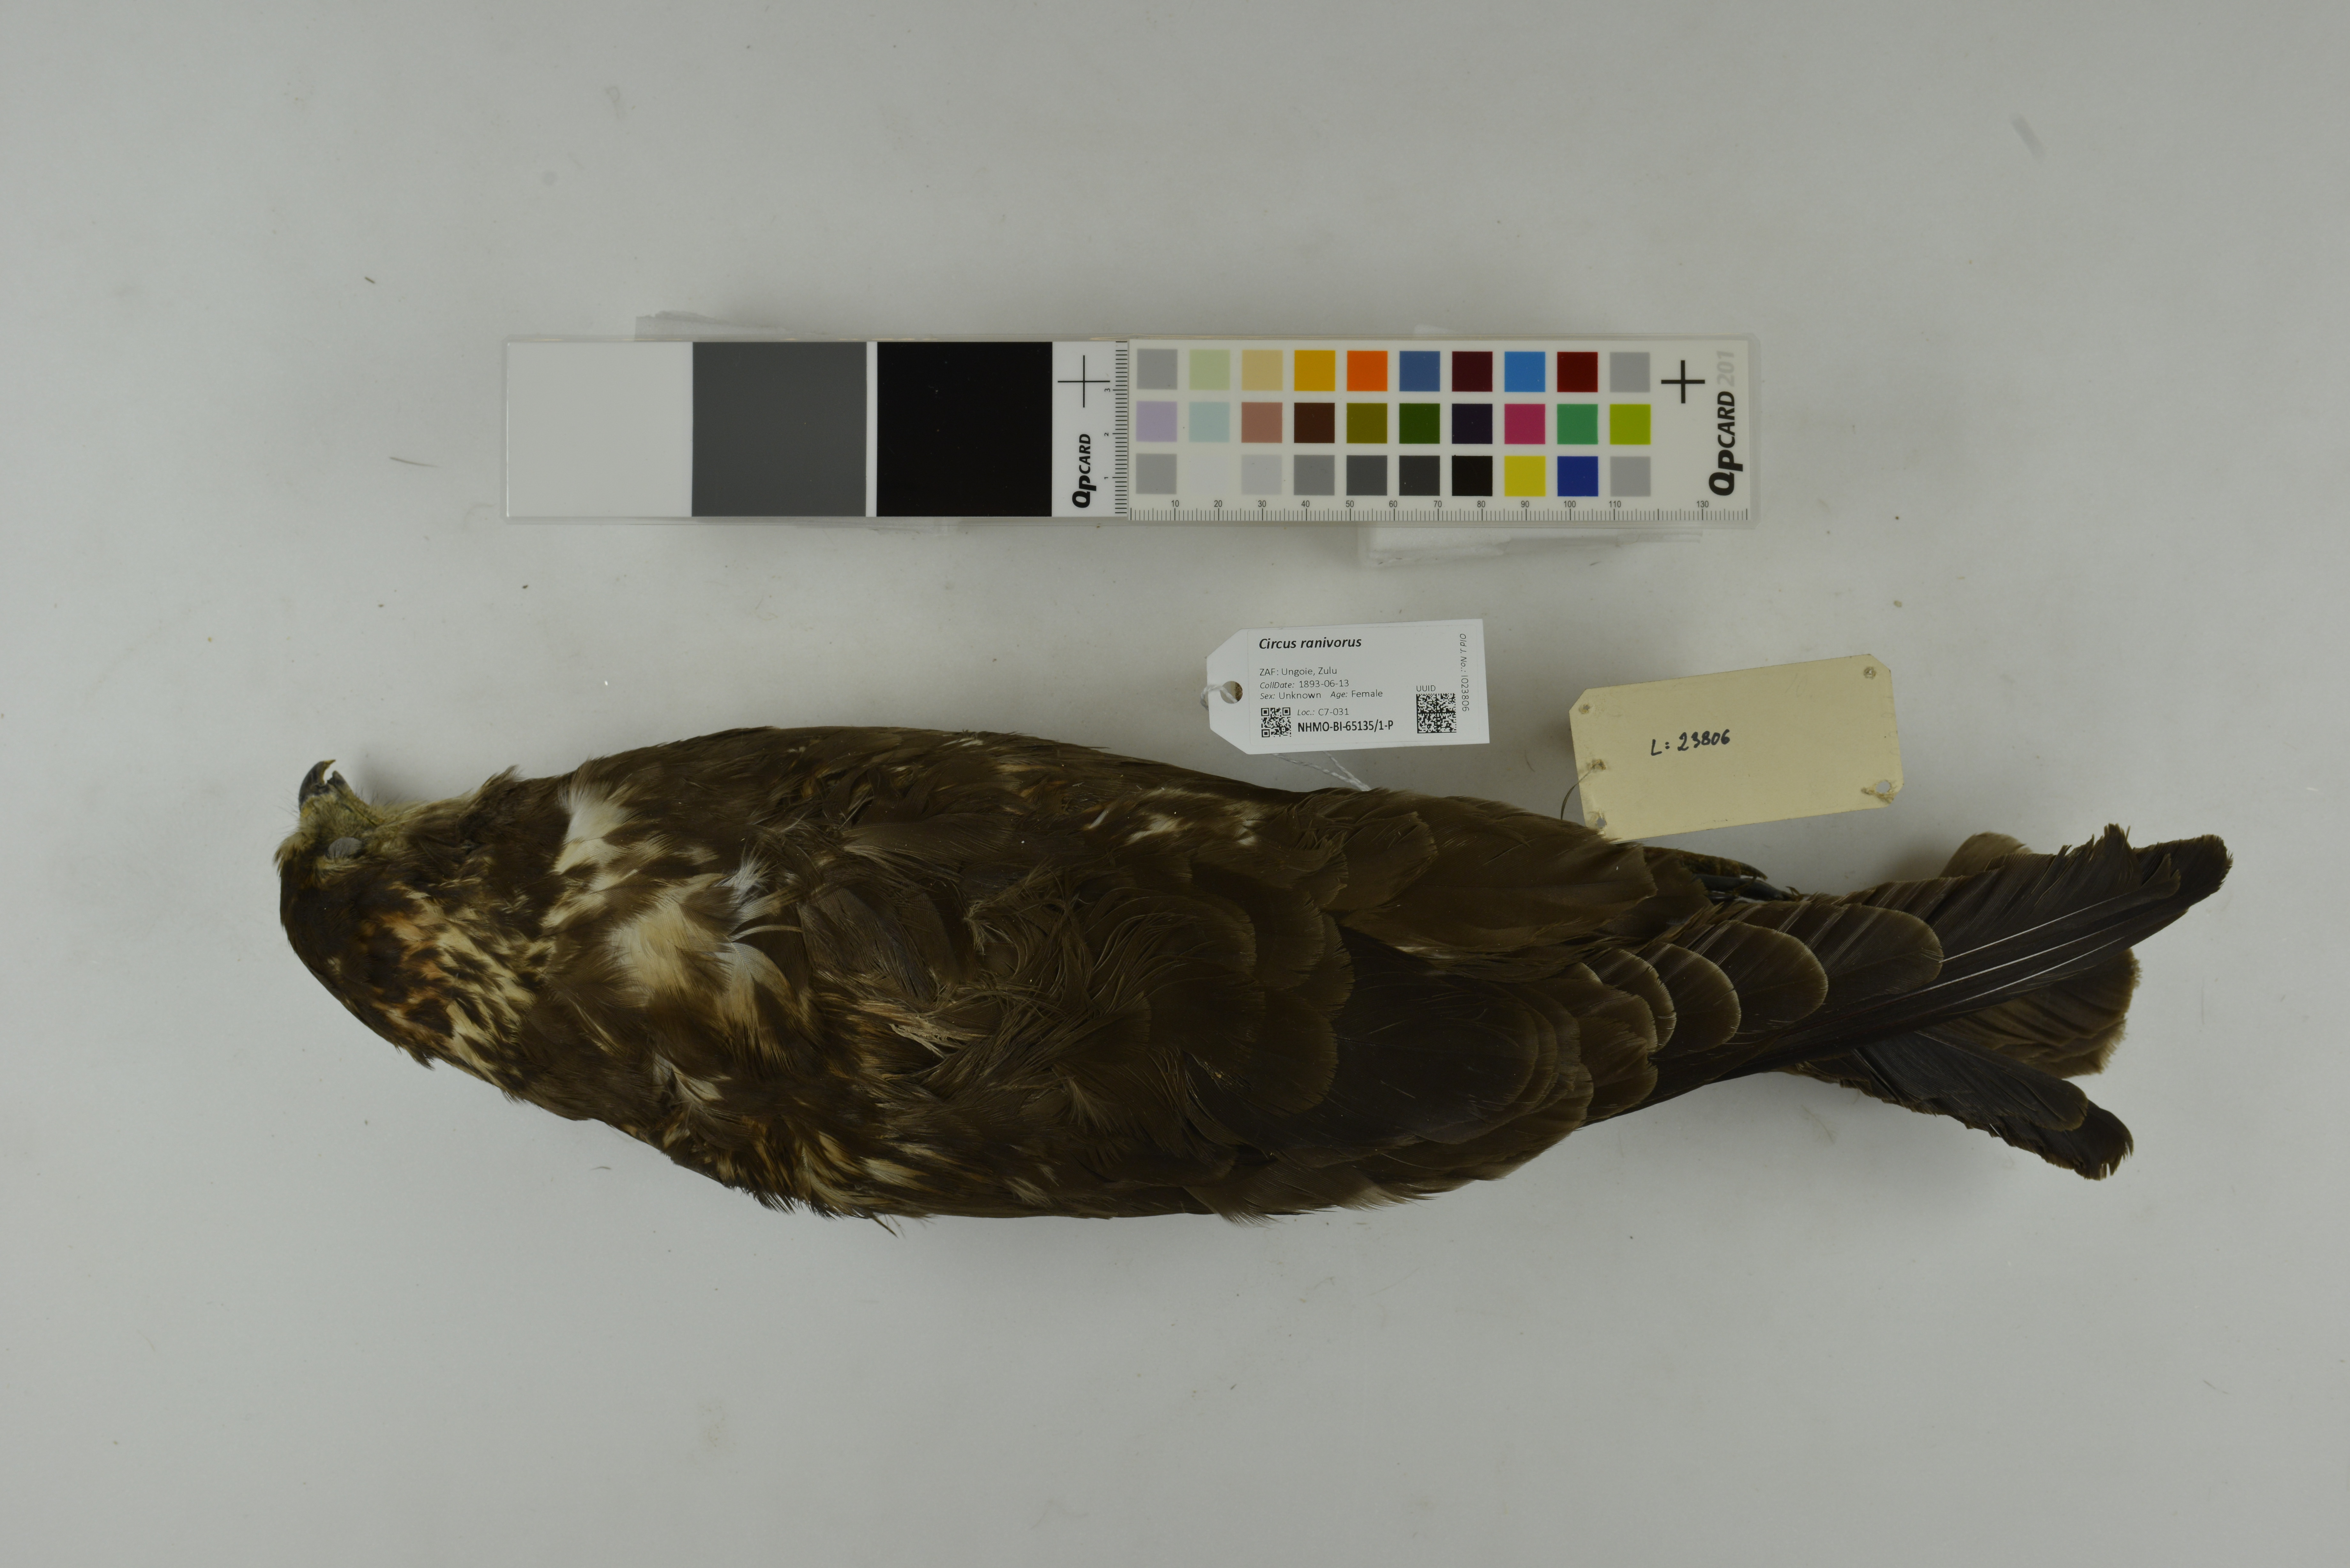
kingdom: Animalia
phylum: Chordata
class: Aves
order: Accipitriformes
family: Accipitridae
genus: Circus
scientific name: Circus ranivorus
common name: African marsh-harrier
